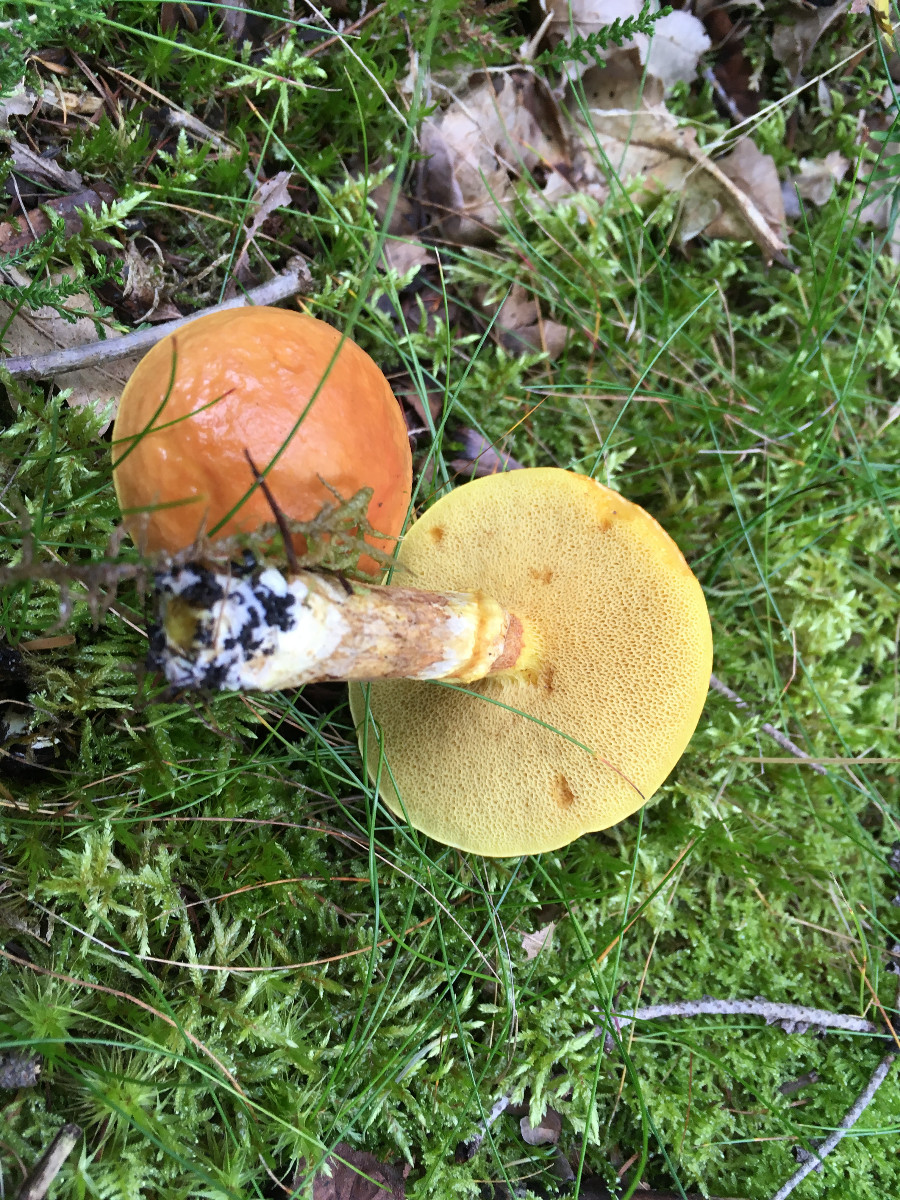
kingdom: Fungi
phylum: Basidiomycota
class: Agaricomycetes
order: Boletales
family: Suillaceae
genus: Suillus
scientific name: Suillus grevillei
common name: lærke-slimrørhat
